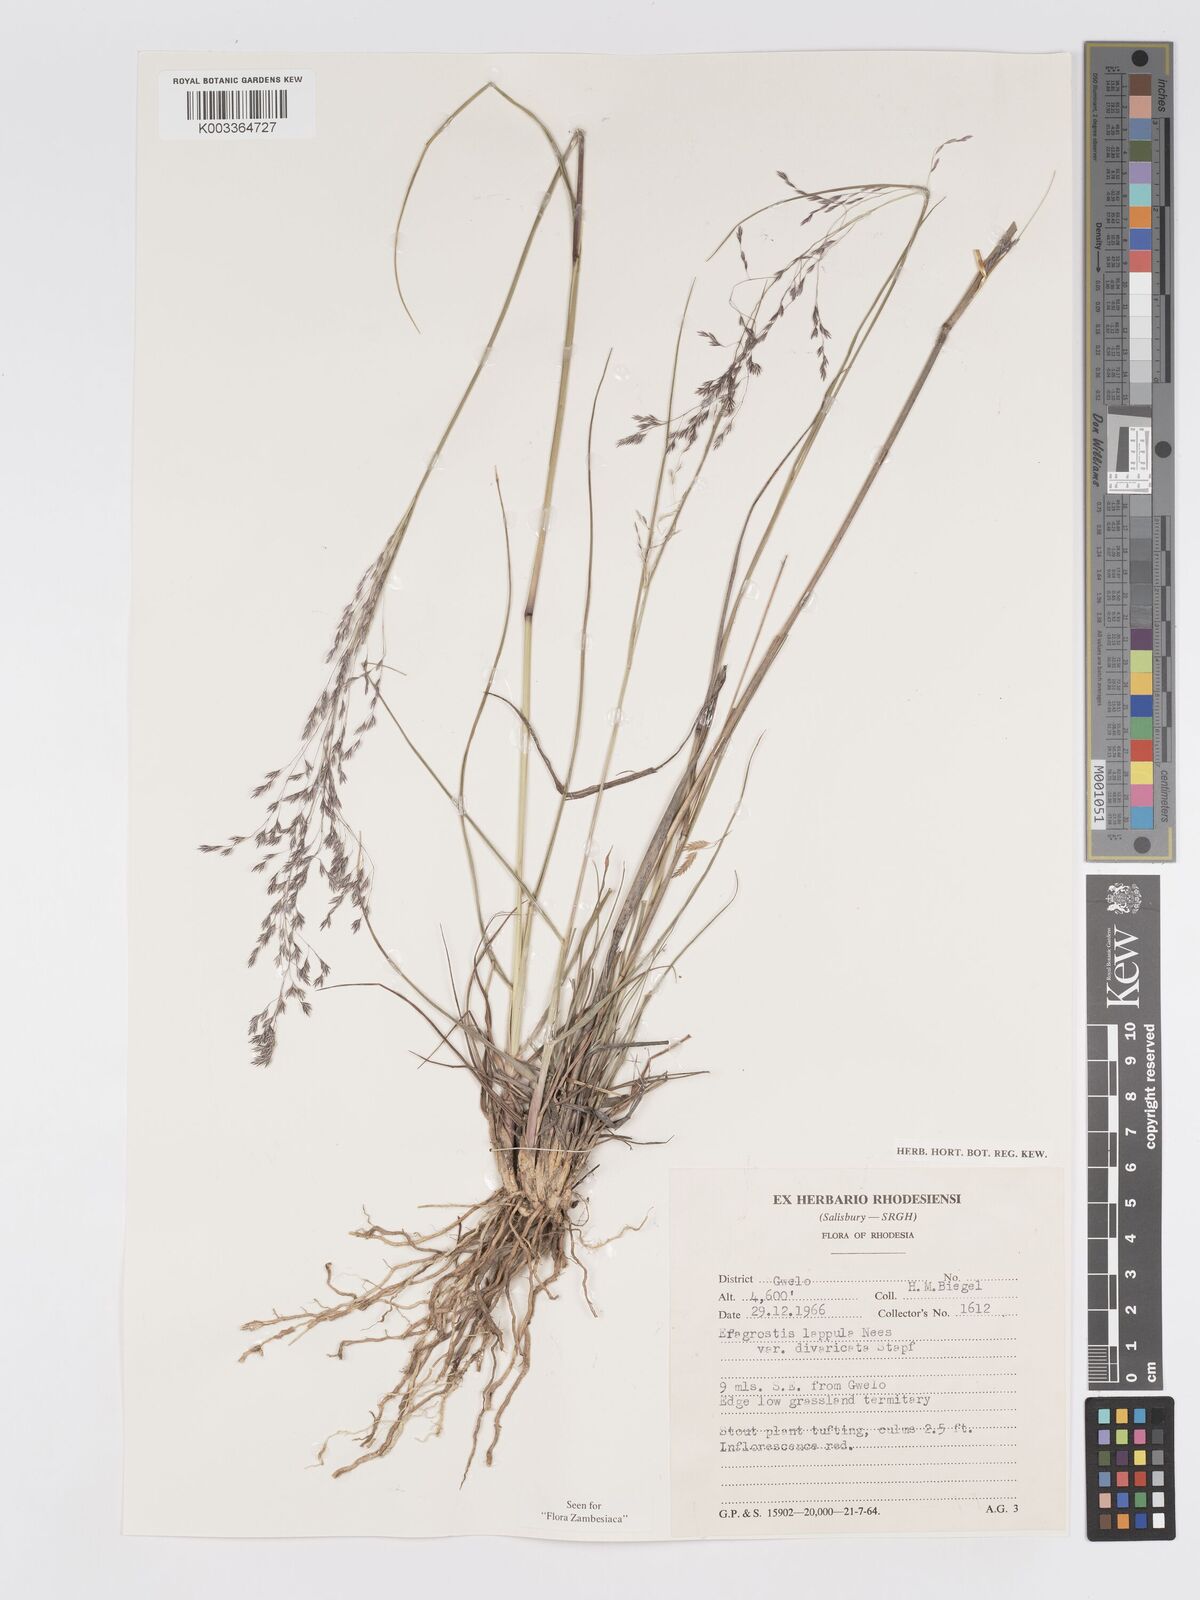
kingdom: Plantae
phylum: Tracheophyta
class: Liliopsida
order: Poales
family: Poaceae
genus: Eragrostis
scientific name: Eragrostis lappula
